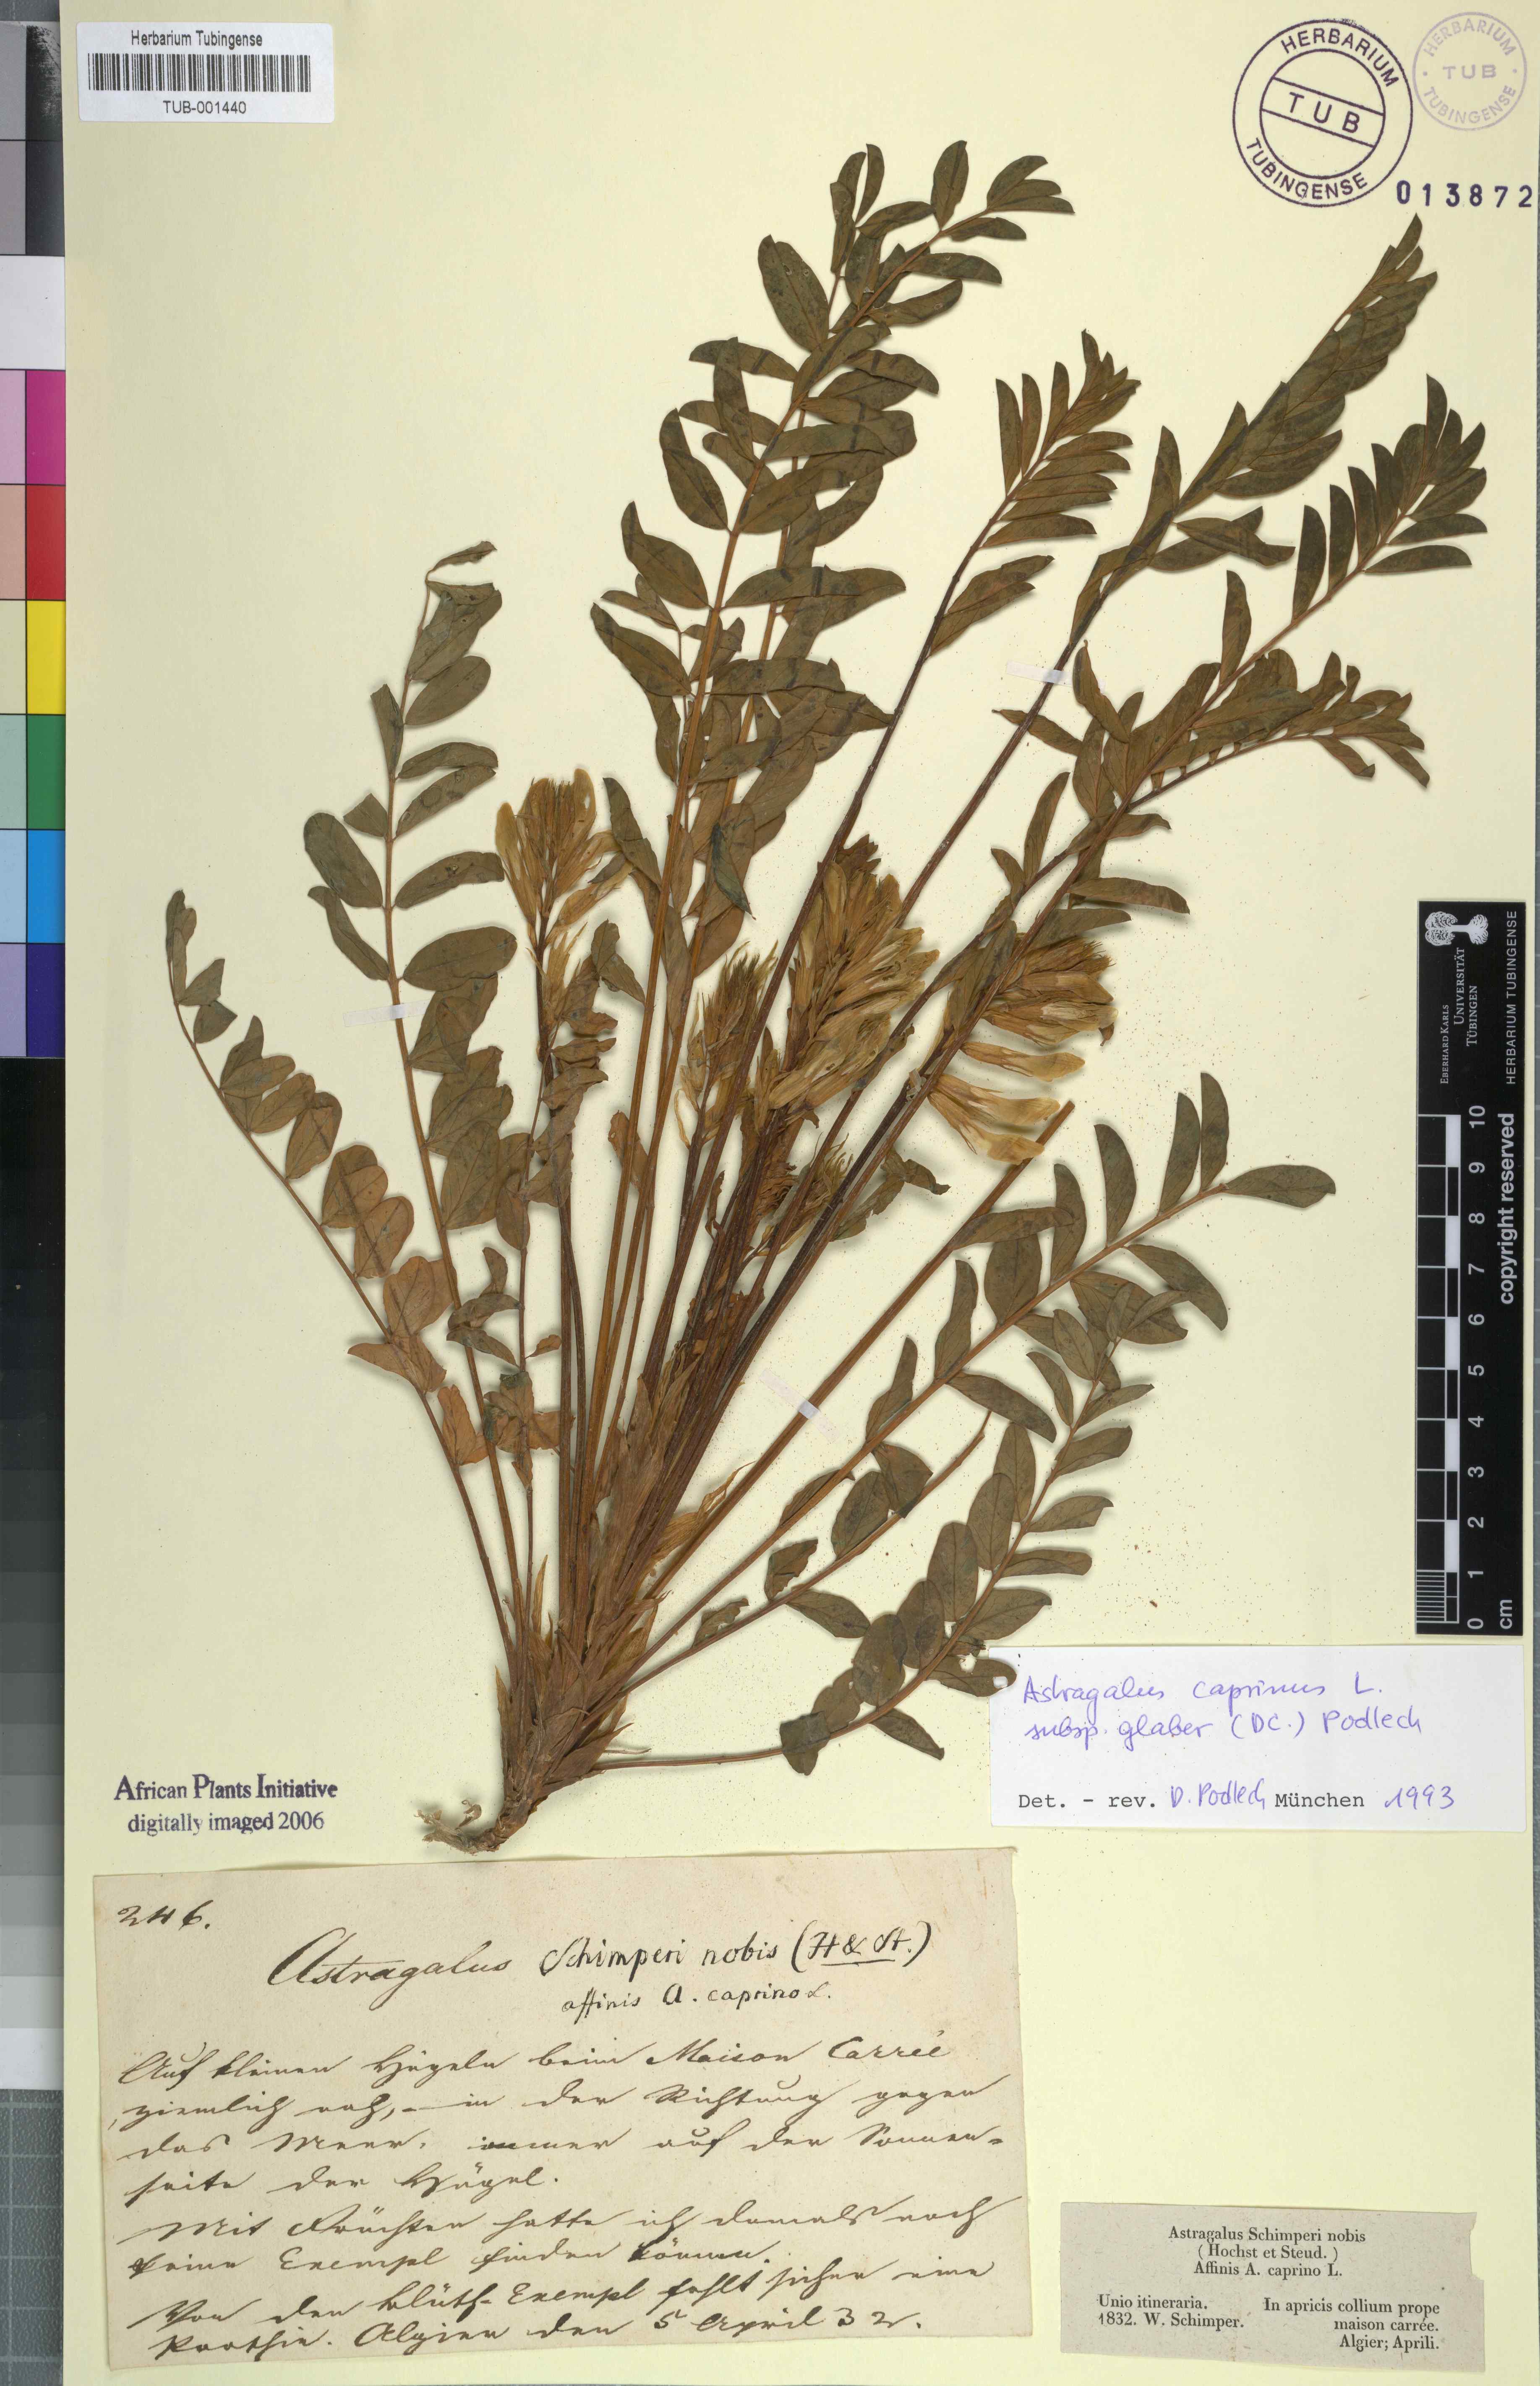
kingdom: Plantae
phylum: Tracheophyta
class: Magnoliopsida
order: Fabales
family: Fabaceae
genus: Astragalus
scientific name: Astragalus caprinus
